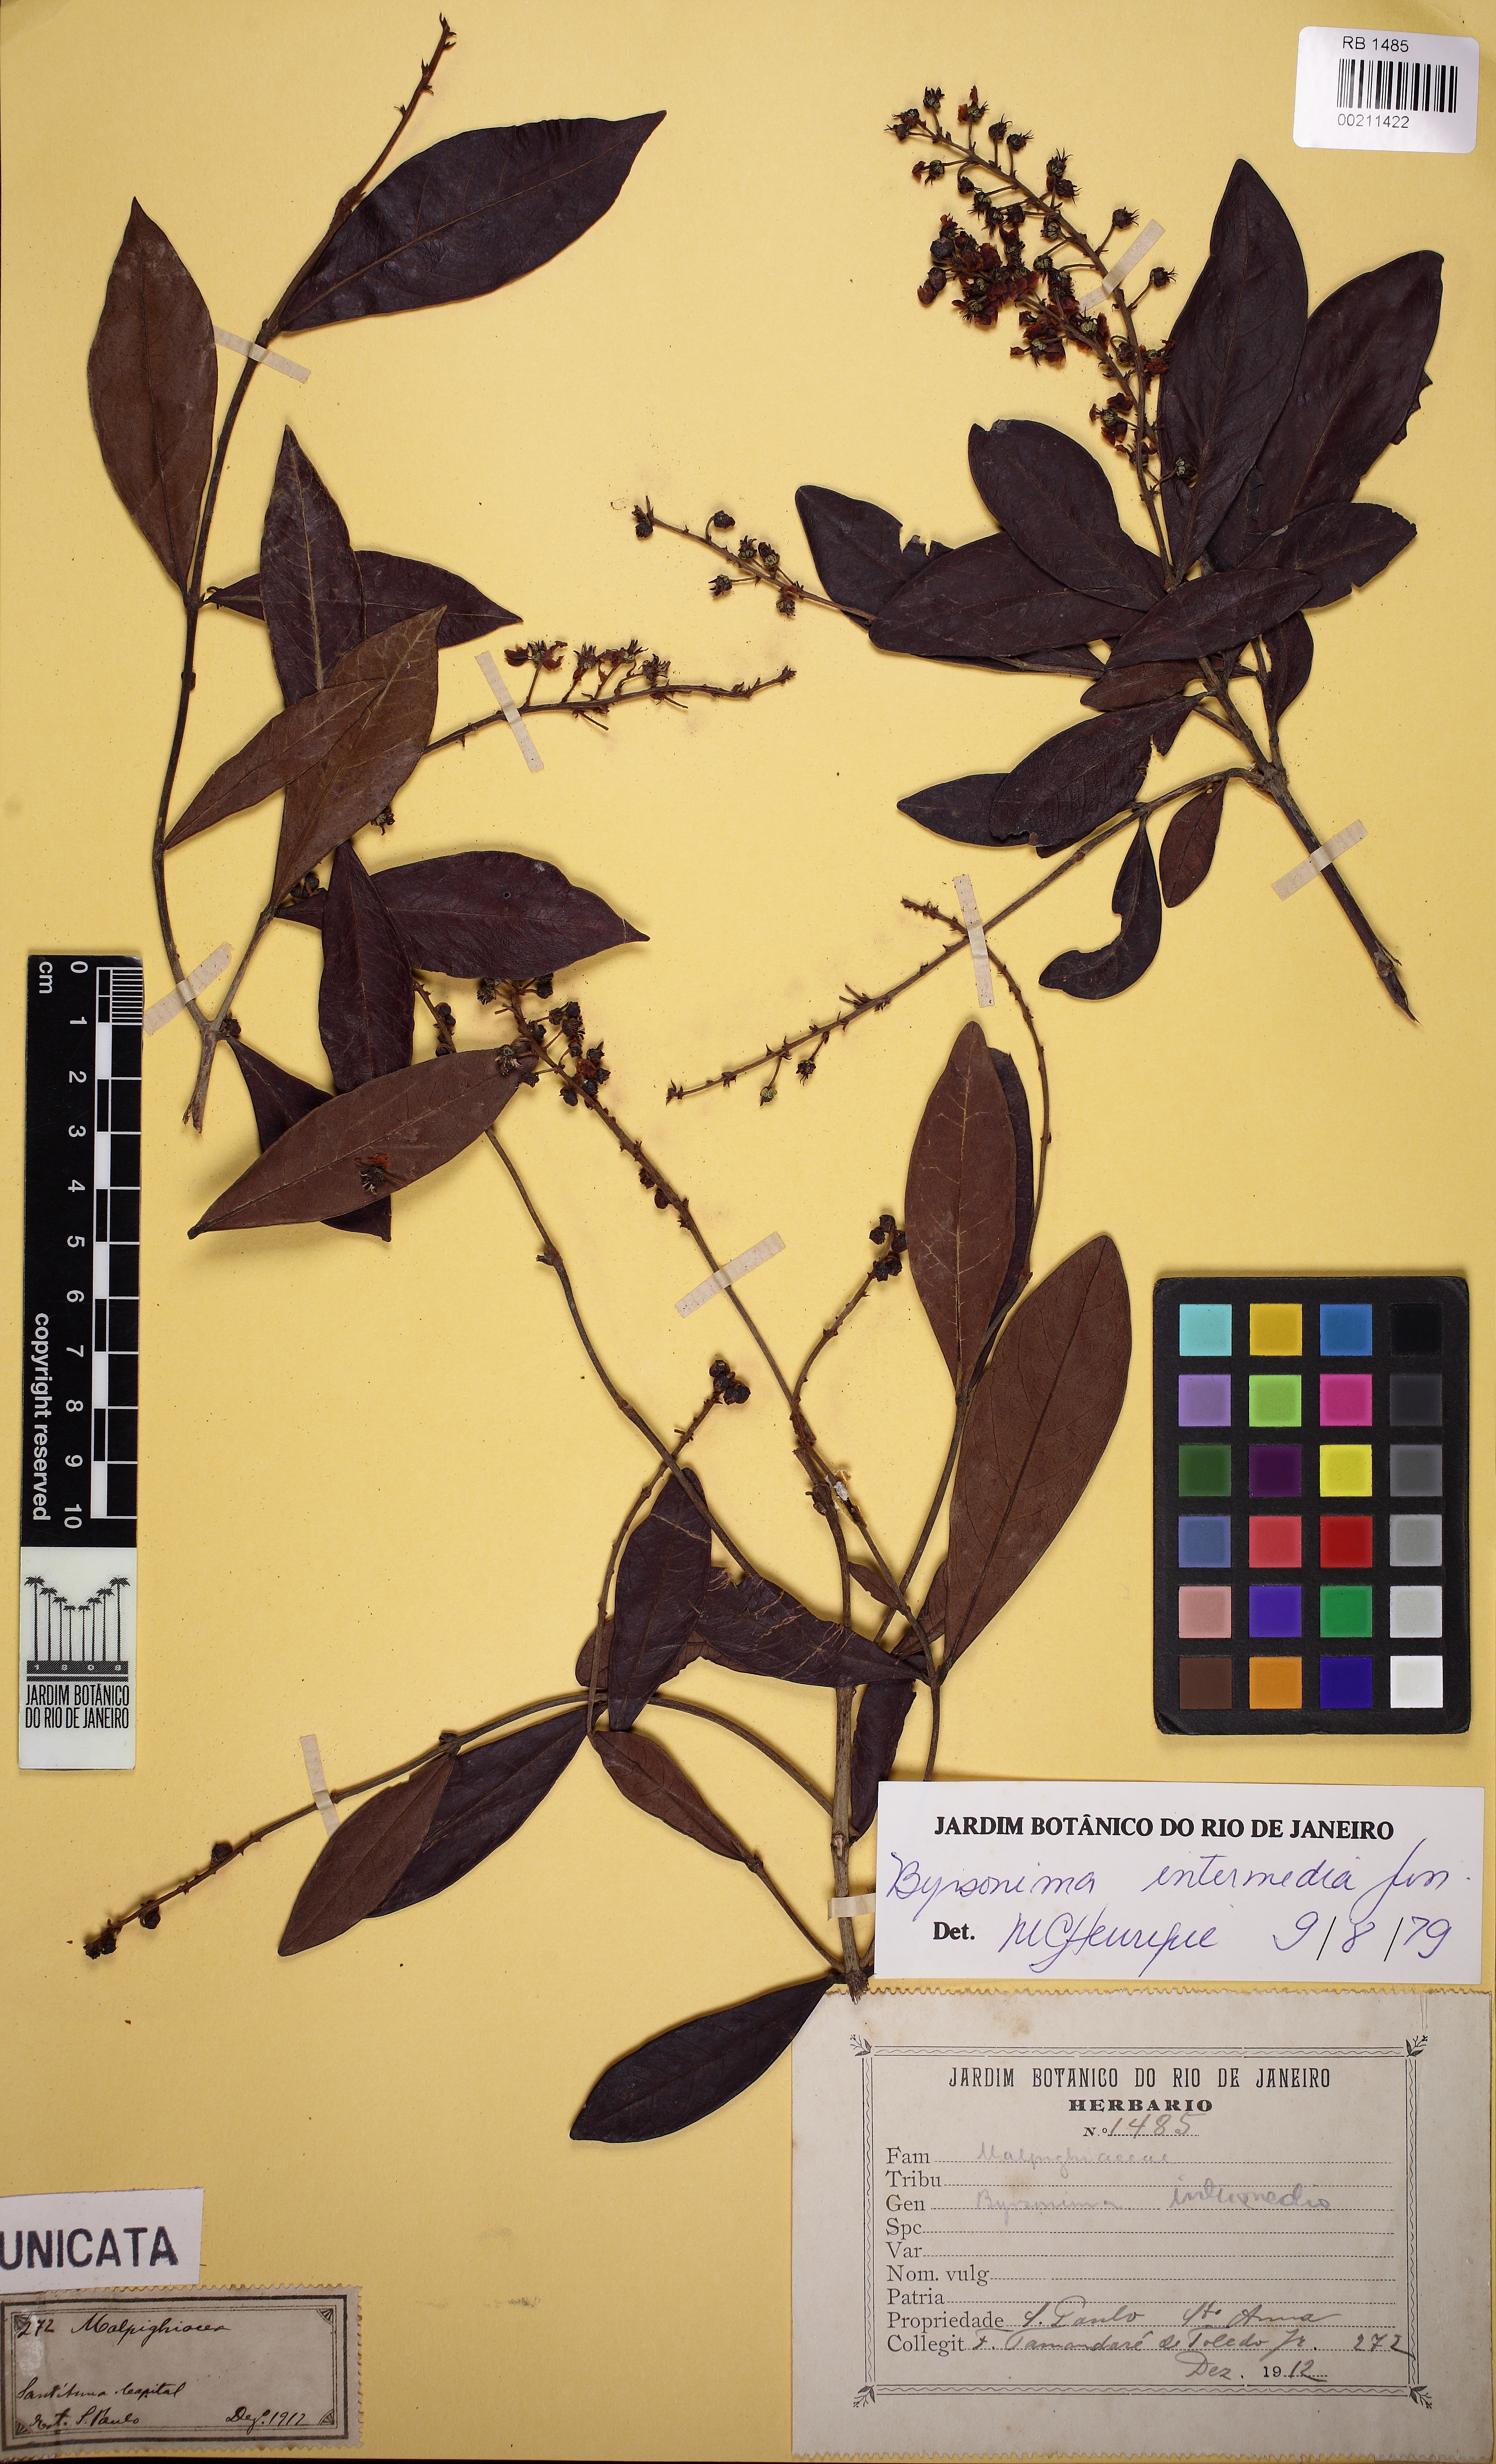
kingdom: Plantae
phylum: Tracheophyta
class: Magnoliopsida
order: Malpighiales
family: Malpighiaceae
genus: Byrsonima
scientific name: Byrsonima intermedia
